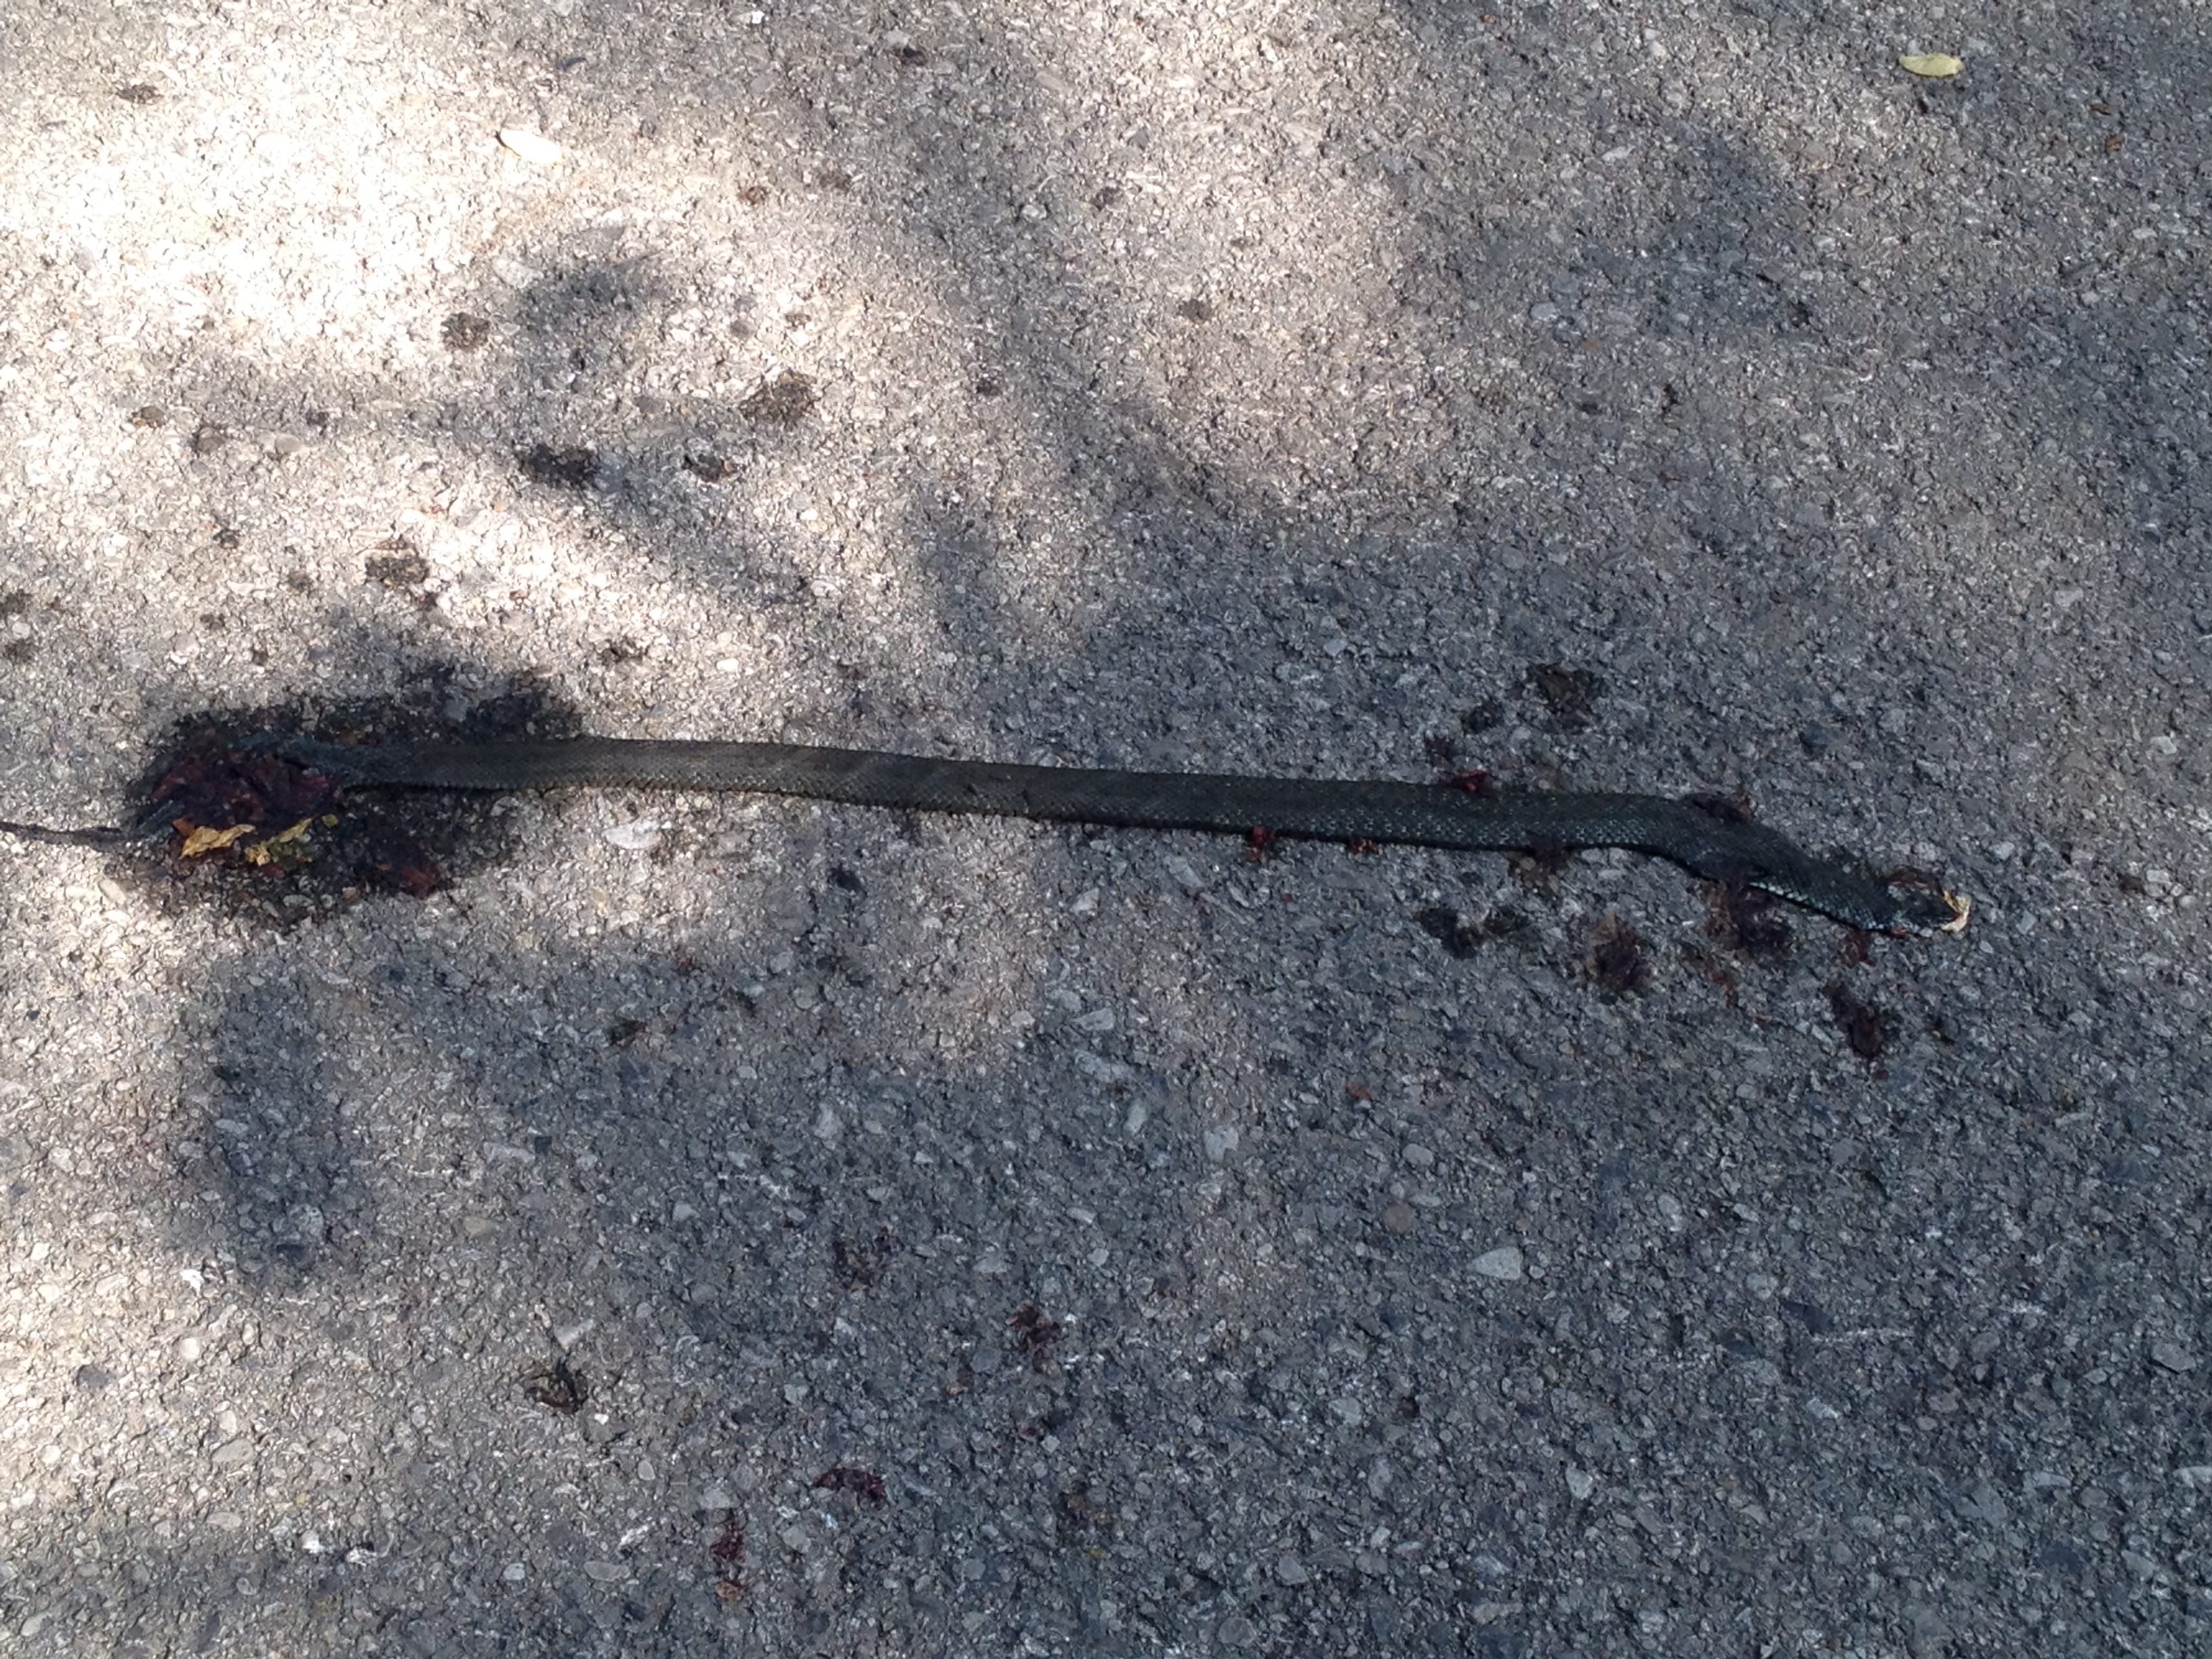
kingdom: Animalia
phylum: Chordata
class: Squamata
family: Colubridae
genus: Natrix
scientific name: Natrix natrix
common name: Grass snake
